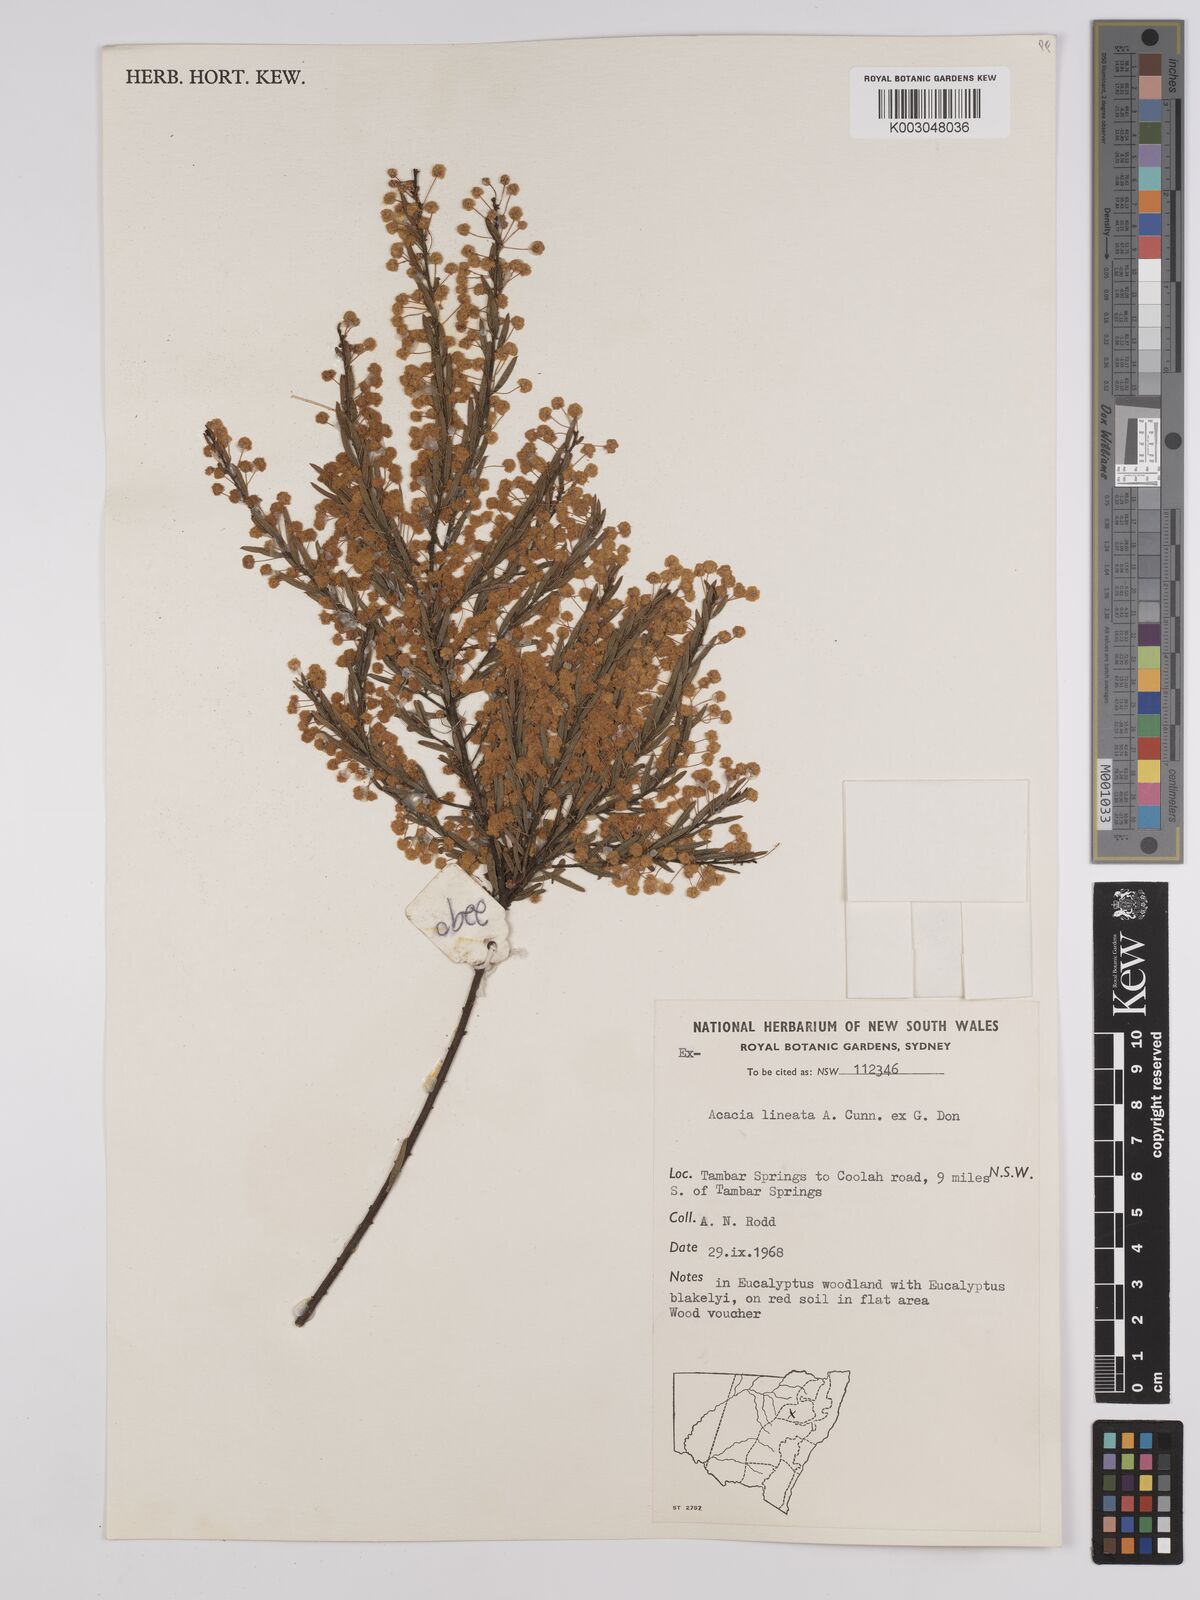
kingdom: Plantae
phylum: Tracheophyta
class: Magnoliopsida
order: Fabales
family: Fabaceae
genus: Acacia
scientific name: Acacia lineata
